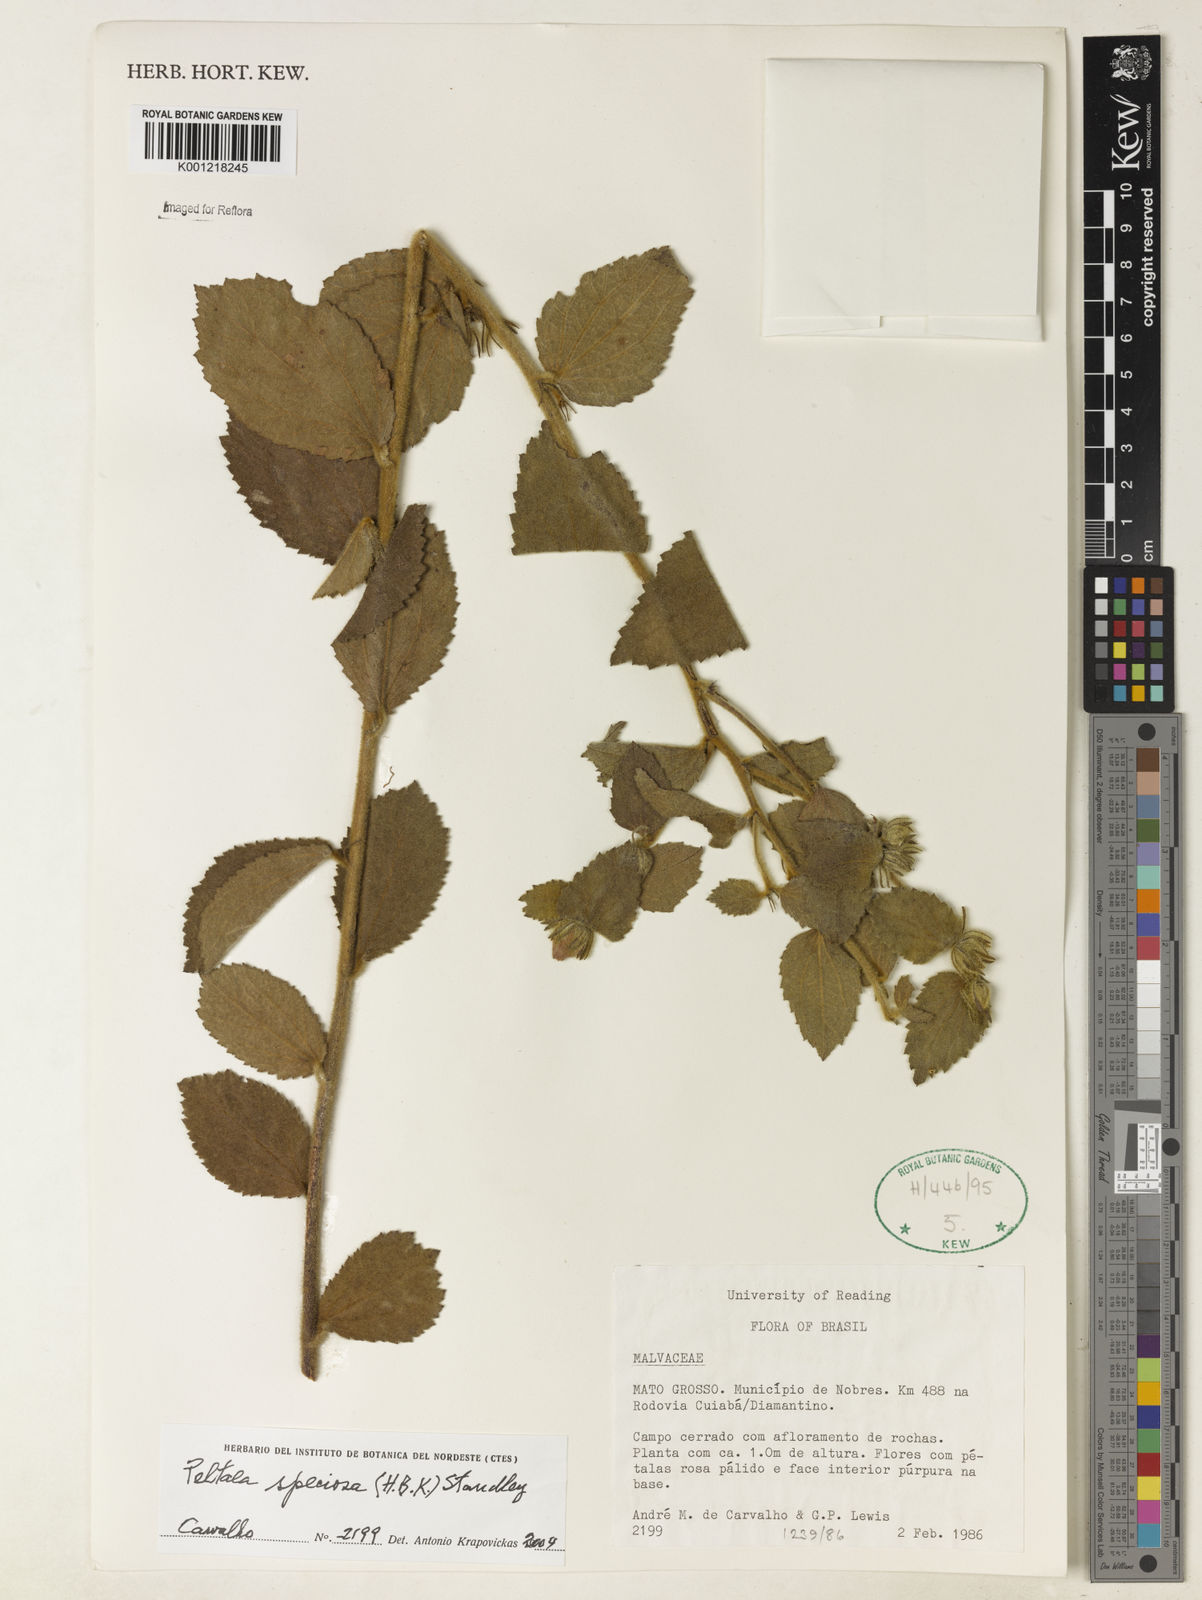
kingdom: Plantae
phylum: Tracheophyta
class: Magnoliopsida
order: Malvales
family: Malvaceae
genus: Peltaea
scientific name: Peltaea speciosa
